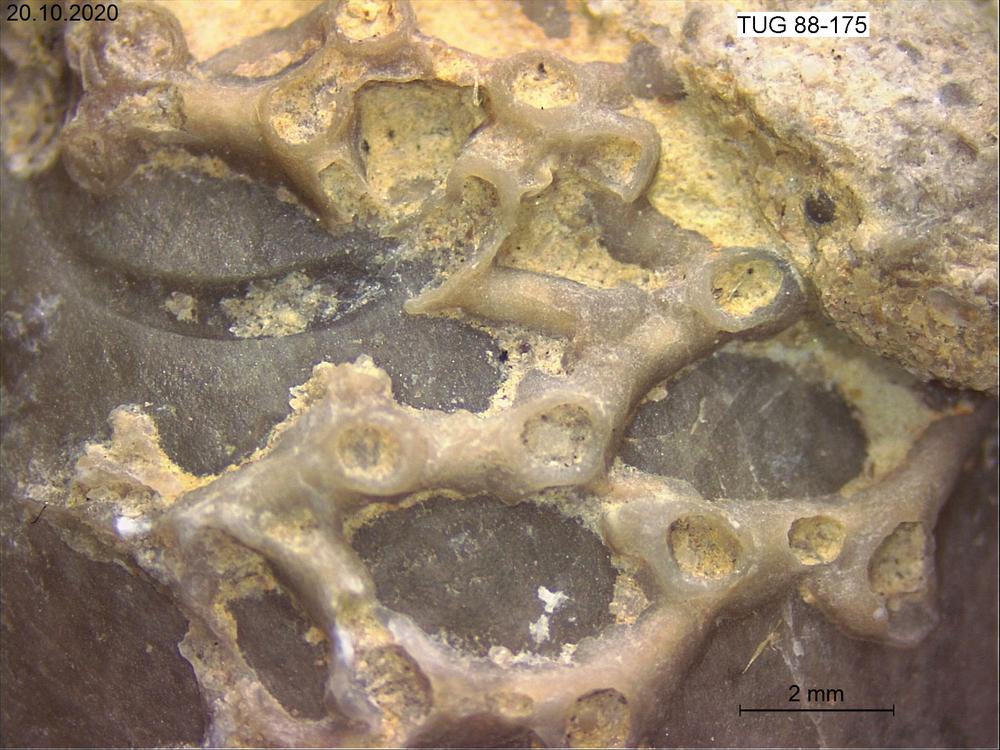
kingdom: Animalia
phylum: Cnidaria
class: Anthozoa
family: Auloporidae
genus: Aulopora
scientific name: Aulopora
